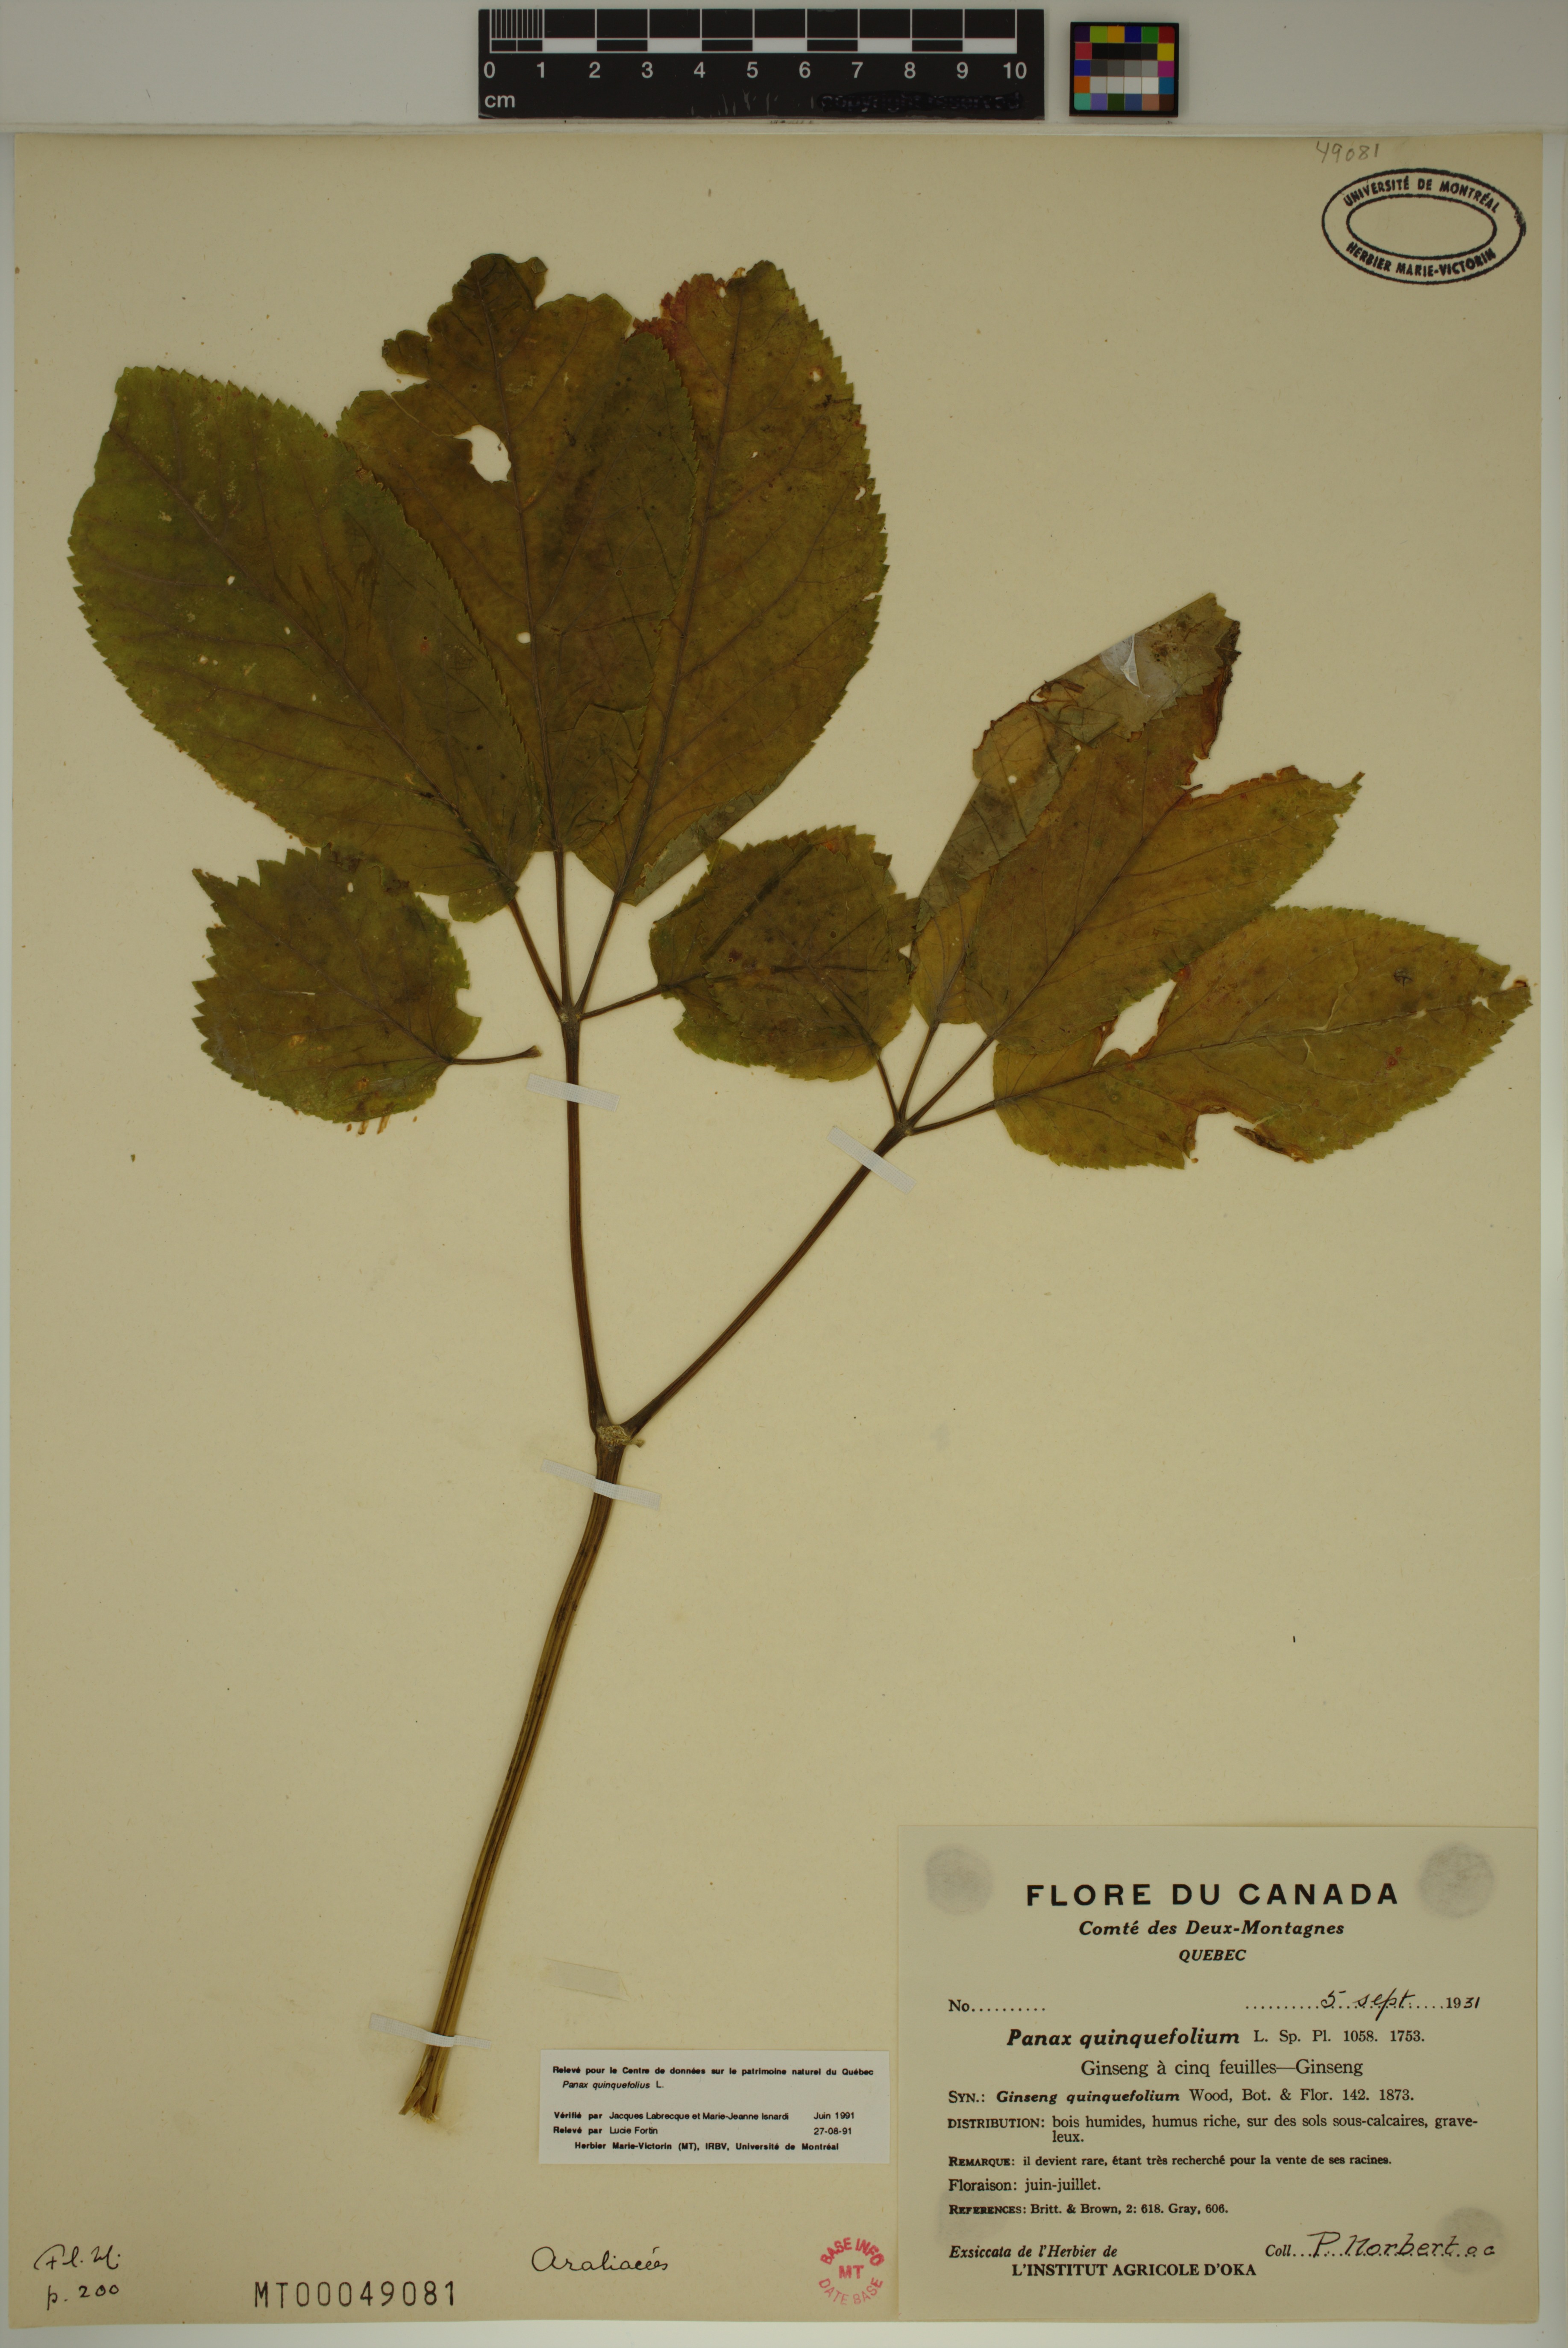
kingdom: Plantae
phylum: Tracheophyta
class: Magnoliopsida
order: Apiales
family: Araliaceae
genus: Panax
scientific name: Panax quinquefolius
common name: American ginseng
